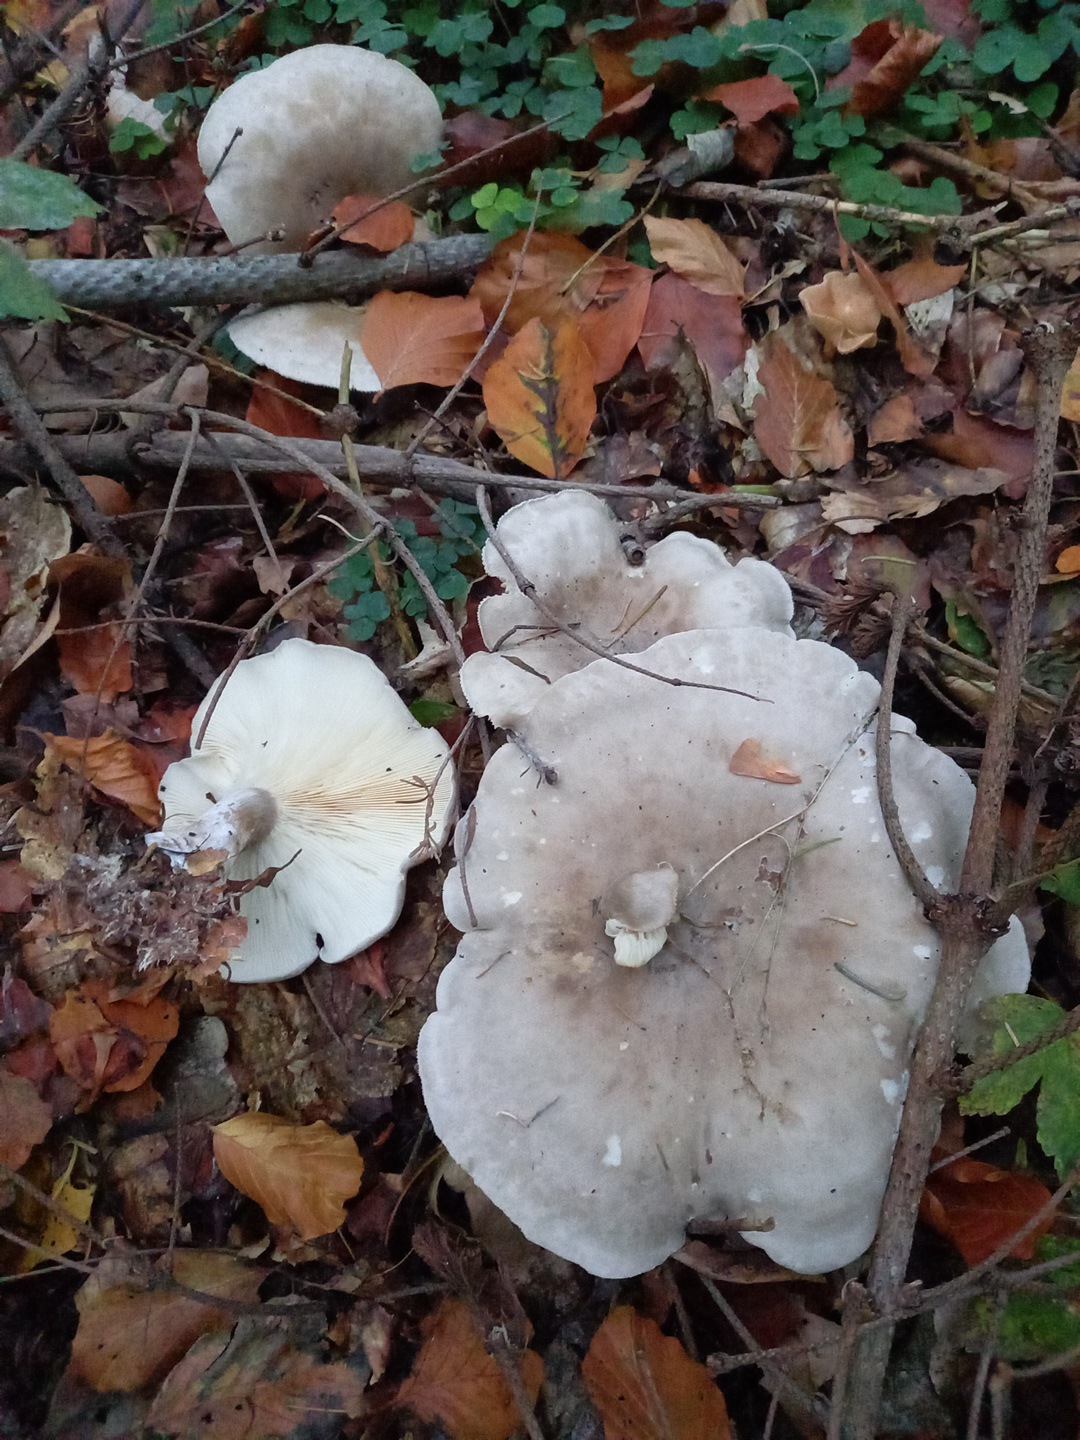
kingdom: Fungi
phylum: Basidiomycota
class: Agaricomycetes
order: Agaricales
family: Tricholomataceae
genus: Clitocybe
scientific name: Clitocybe nebularis
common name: tåge-tragthat
